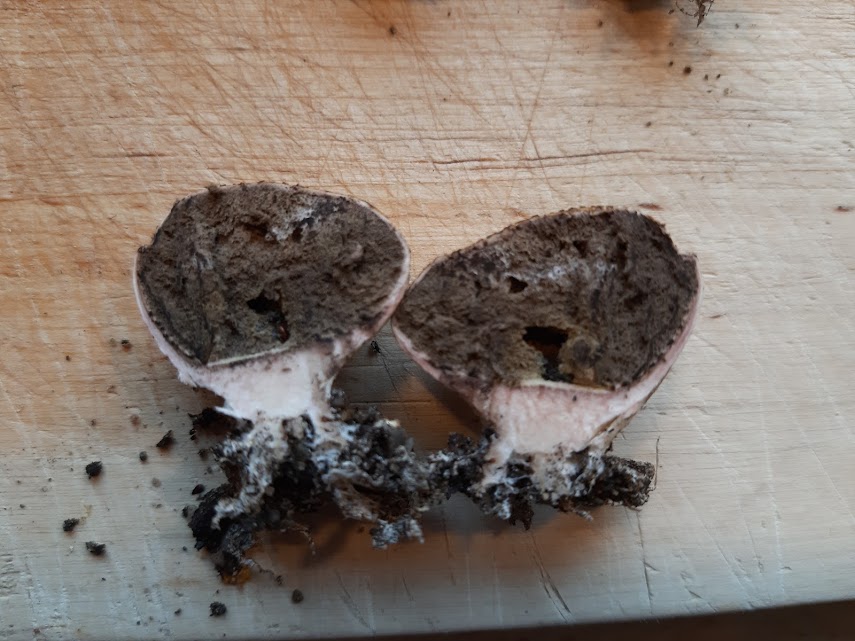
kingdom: Fungi
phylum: Basidiomycota
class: Agaricomycetes
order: Boletales
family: Sclerodermataceae
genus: Scleroderma
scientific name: Scleroderma areolatum
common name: plettet bruskbold
